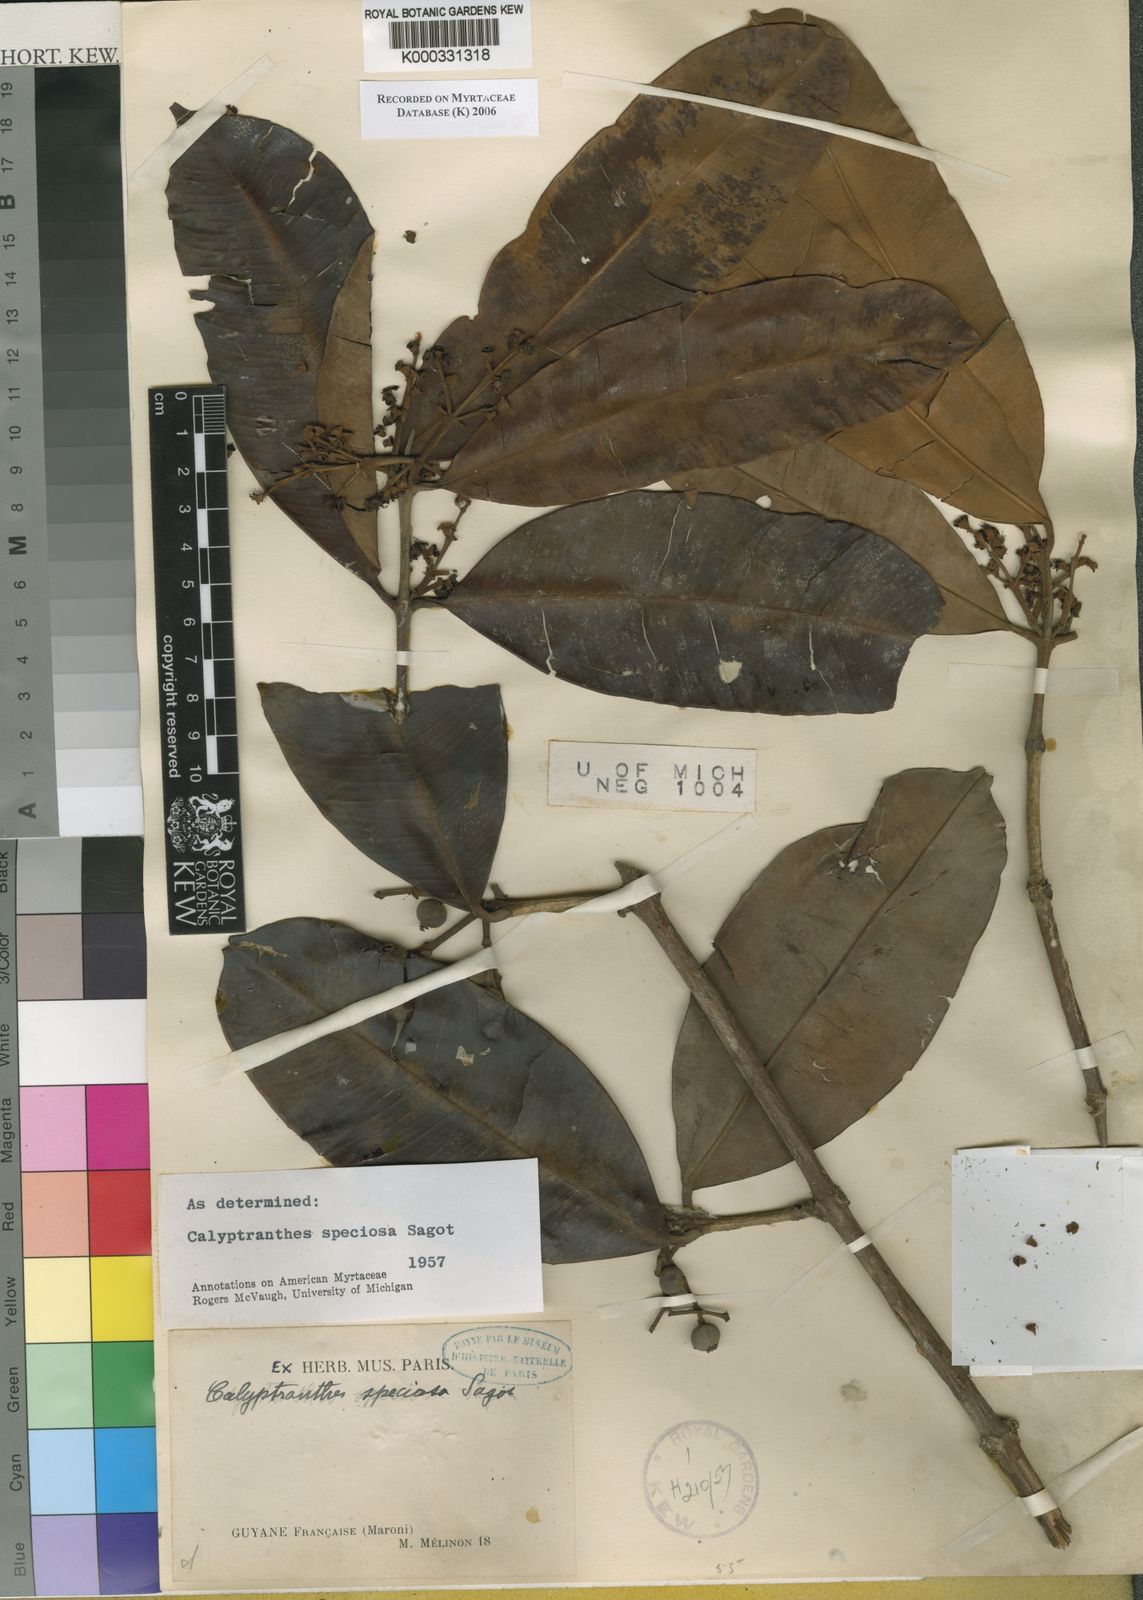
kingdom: Plantae
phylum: Tracheophyta
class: Magnoliopsida
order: Myrtales
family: Myrtaceae
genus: Myrcia
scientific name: Myrcia neospeciosa
